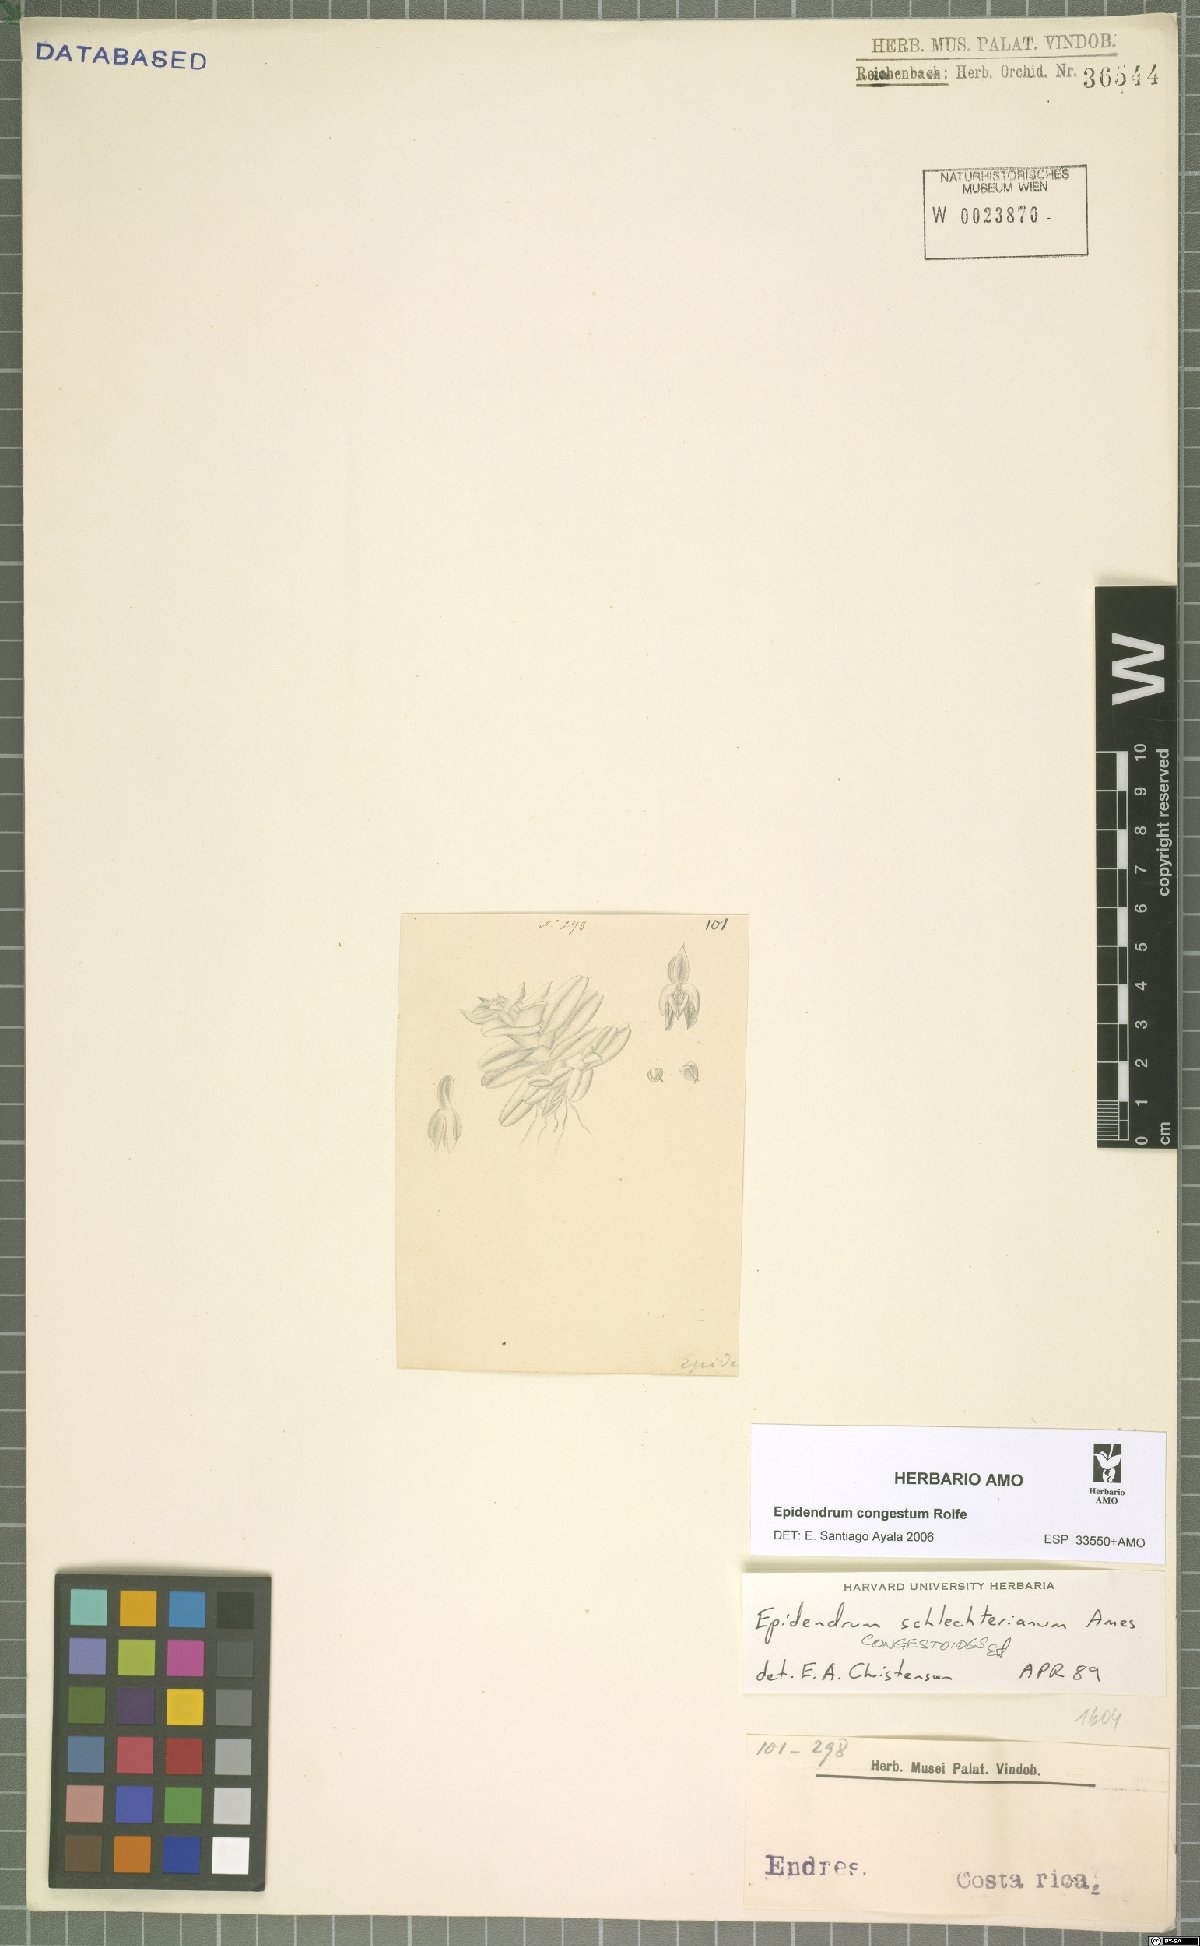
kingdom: Plantae
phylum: Tracheophyta
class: Liliopsida
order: Asparagales
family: Orchidaceae
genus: Epidendrum
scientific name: Epidendrum congestum
